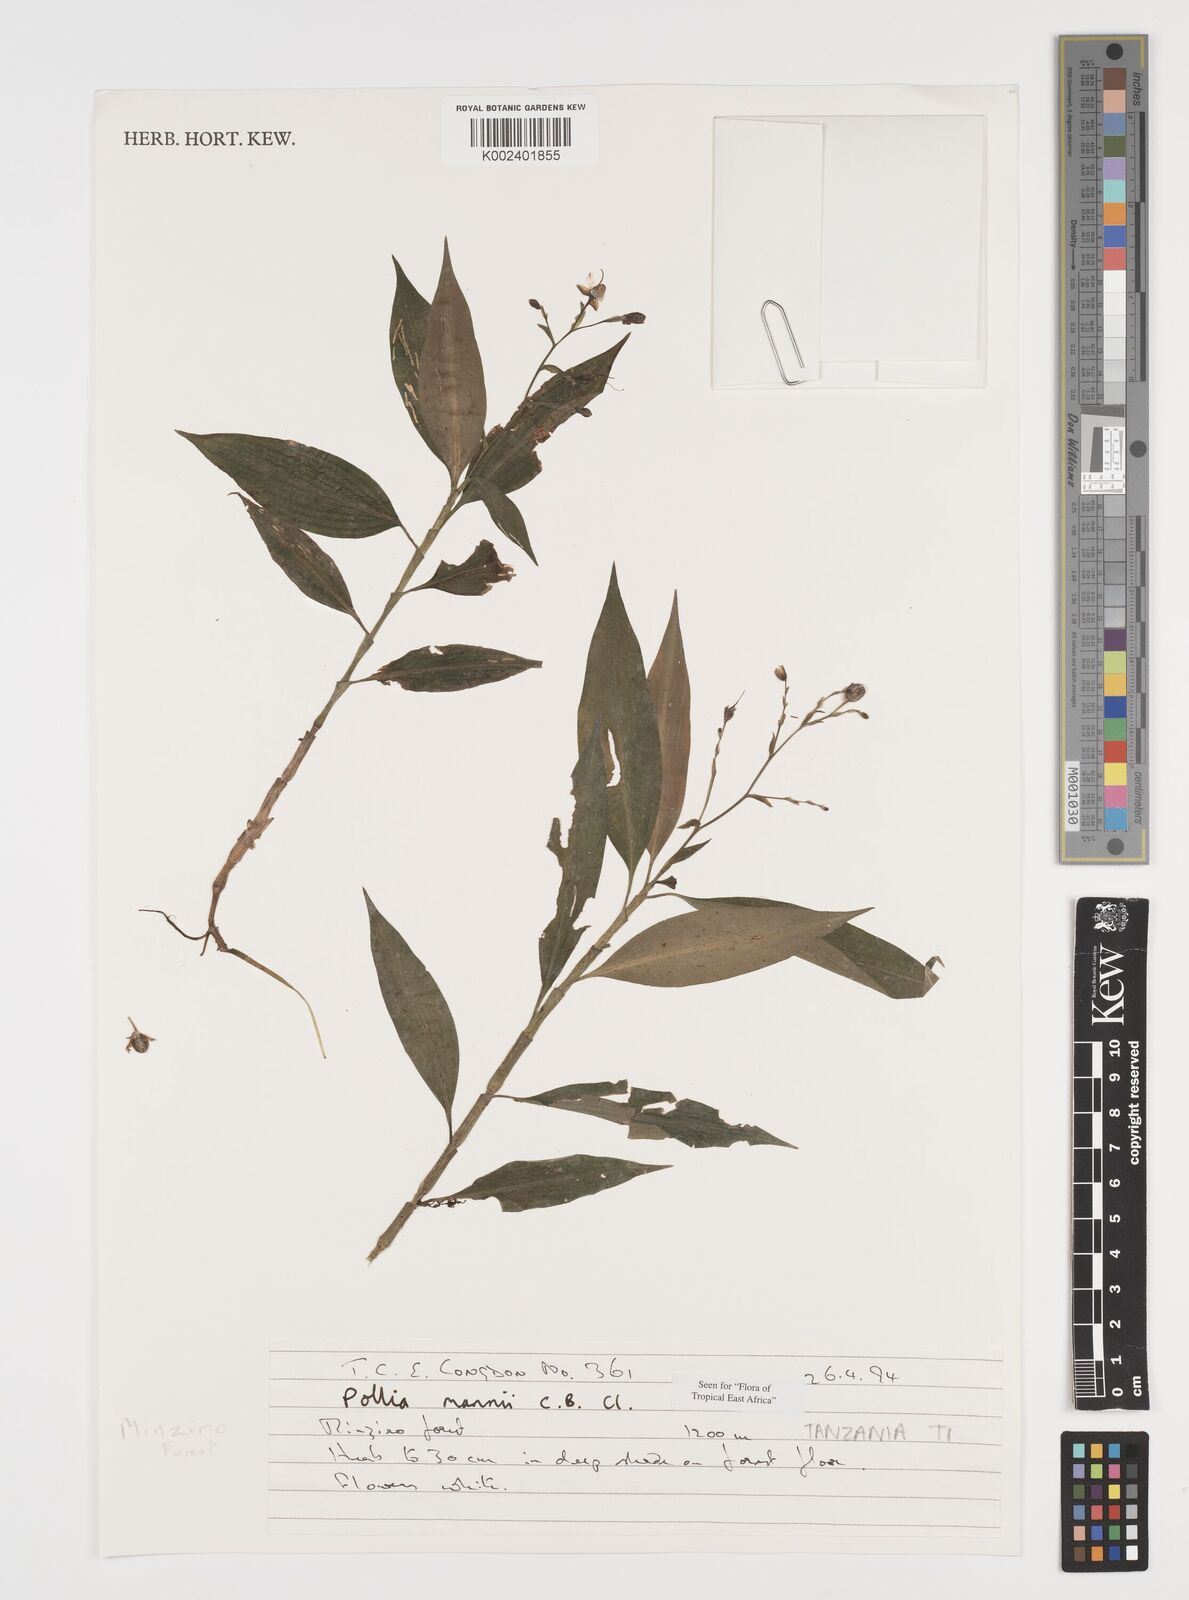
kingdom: Plantae
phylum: Tracheophyta
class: Liliopsida
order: Commelinales
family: Commelinaceae
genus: Pollia
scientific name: Pollia mannii
